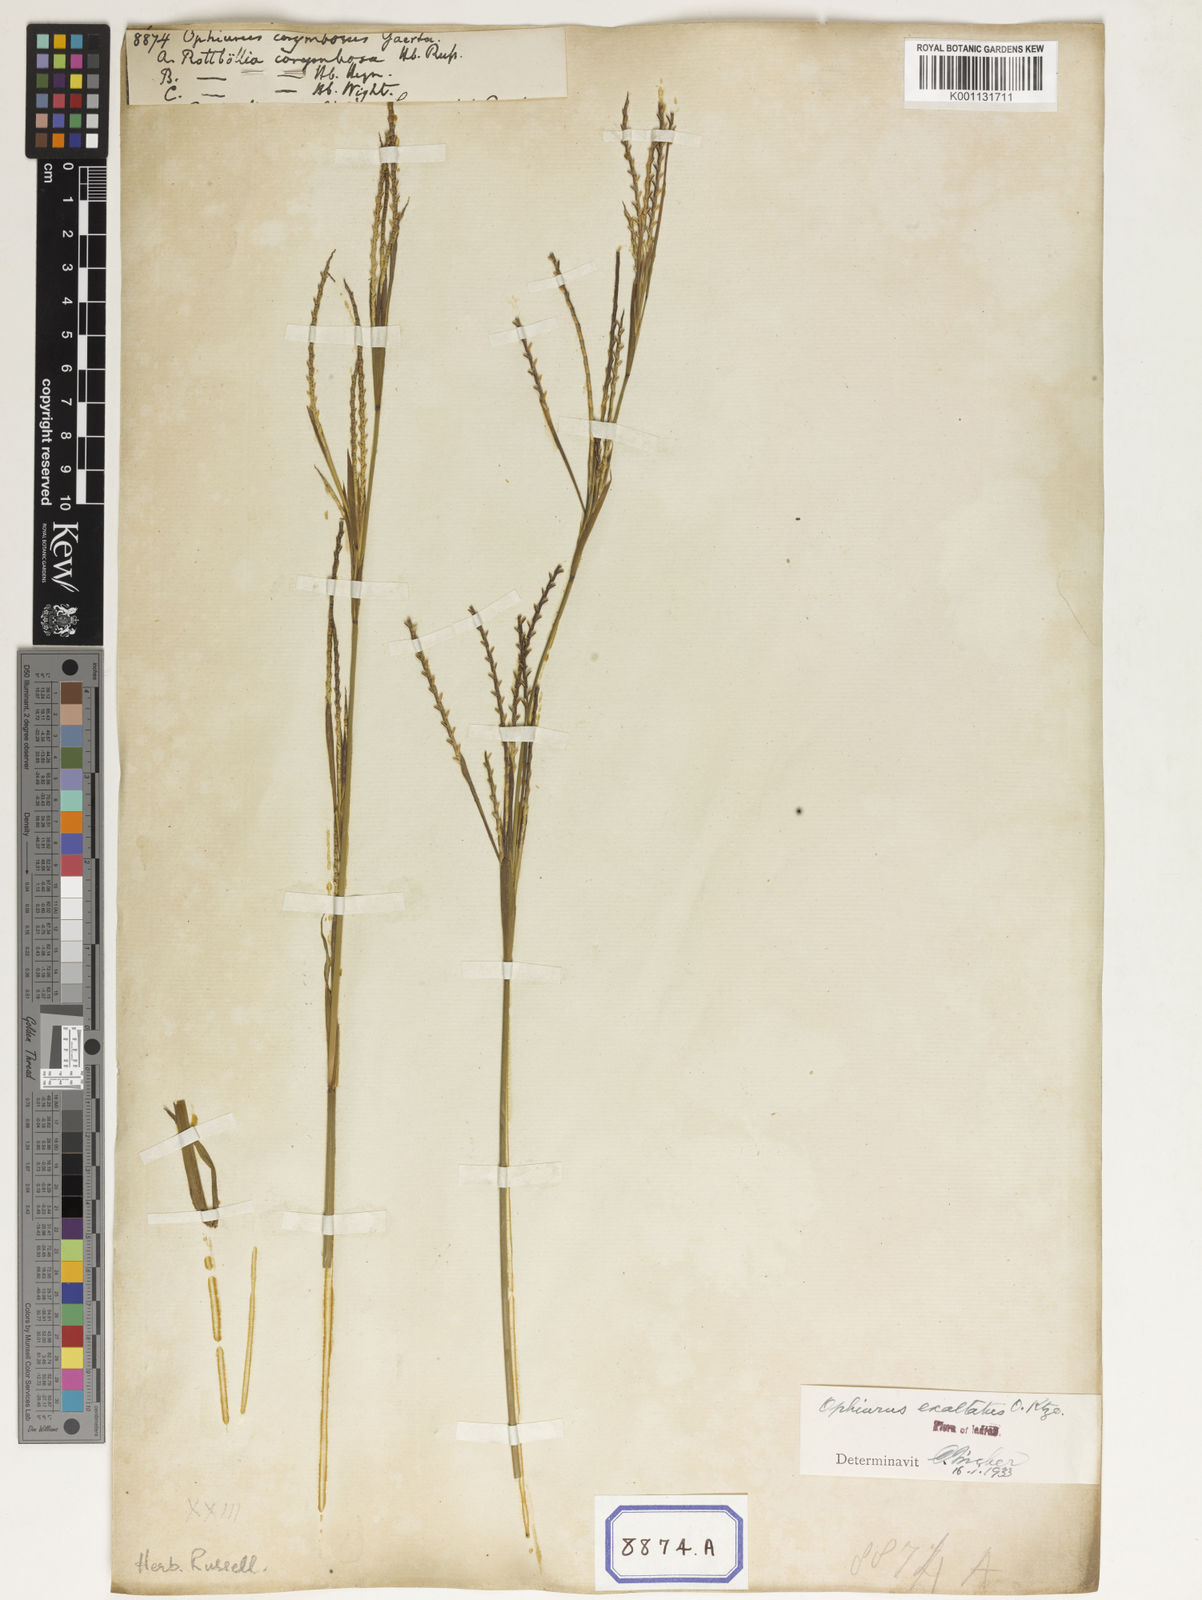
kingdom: Plantae
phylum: Tracheophyta
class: Liliopsida
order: Poales
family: Poaceae
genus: Ophiuros
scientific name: Ophiuros
